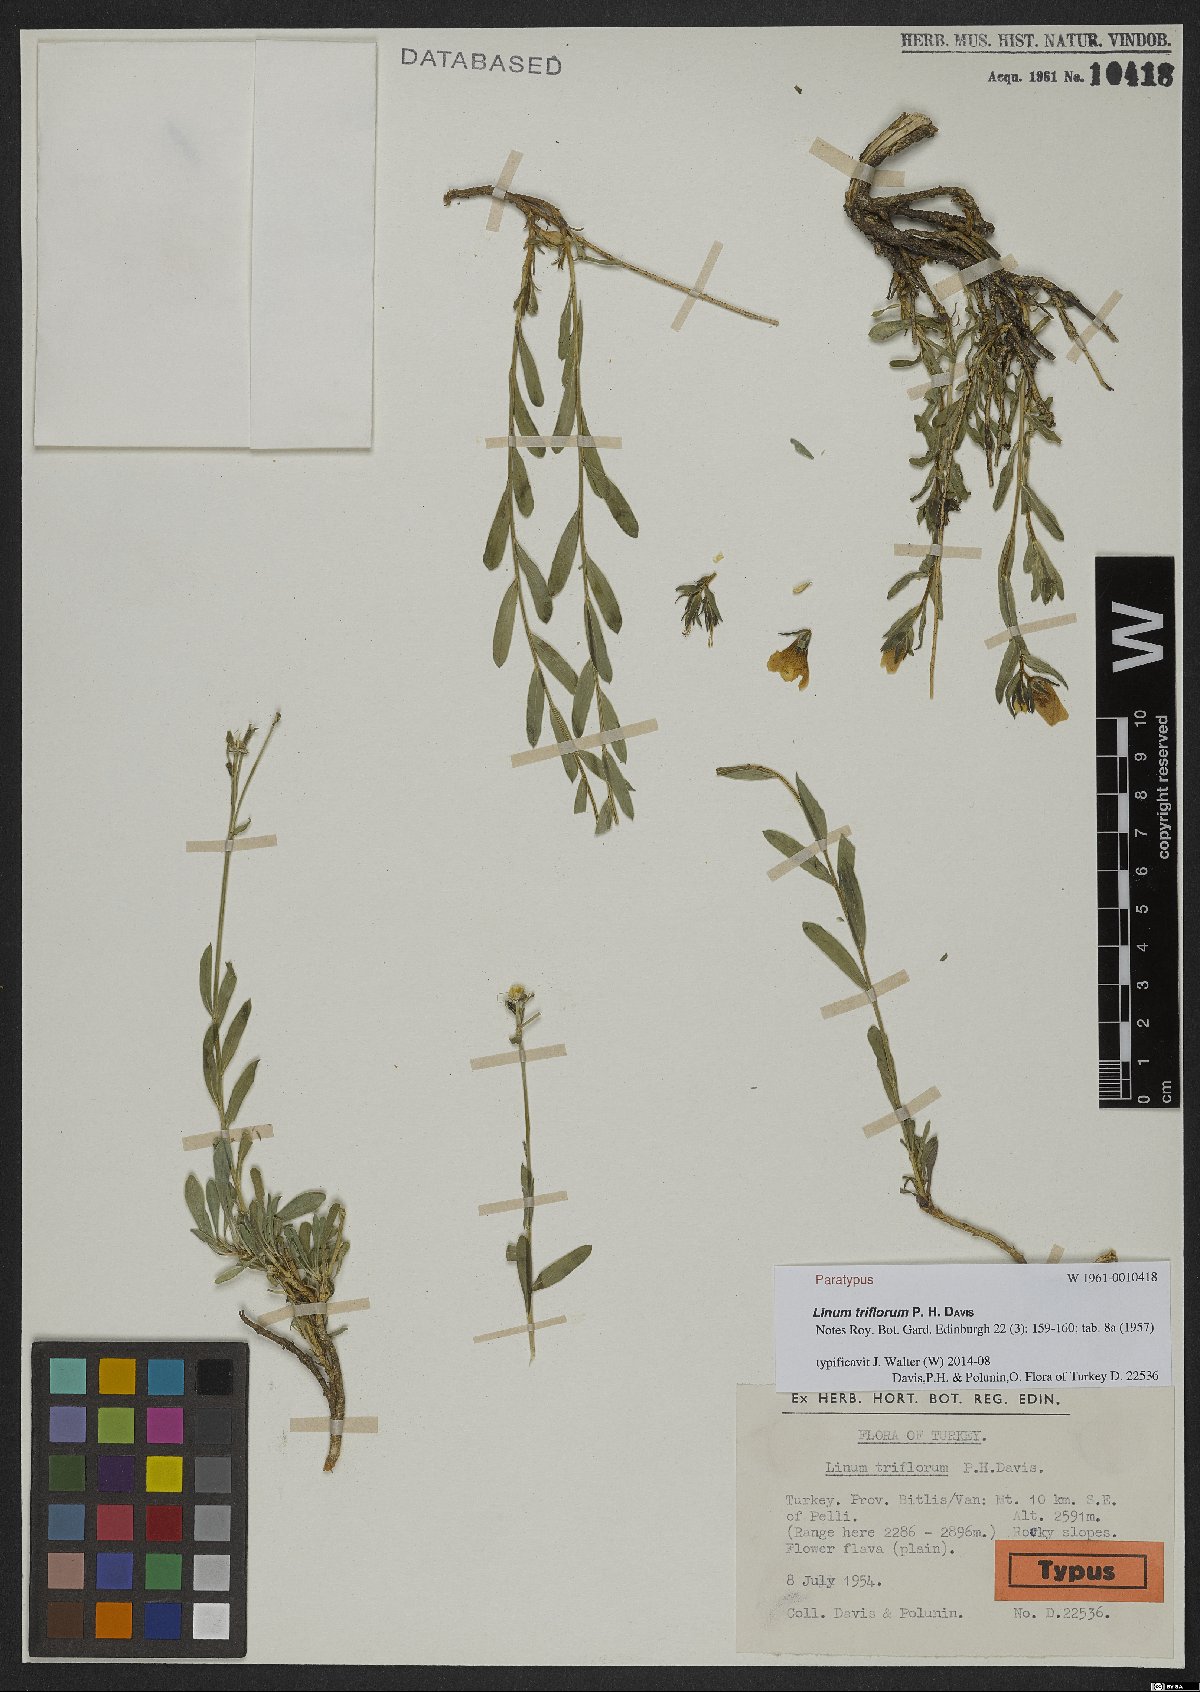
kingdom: Plantae
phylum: Tracheophyta
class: Magnoliopsida
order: Malpighiales
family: Linaceae
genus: Linum
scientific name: Linum triflorum
